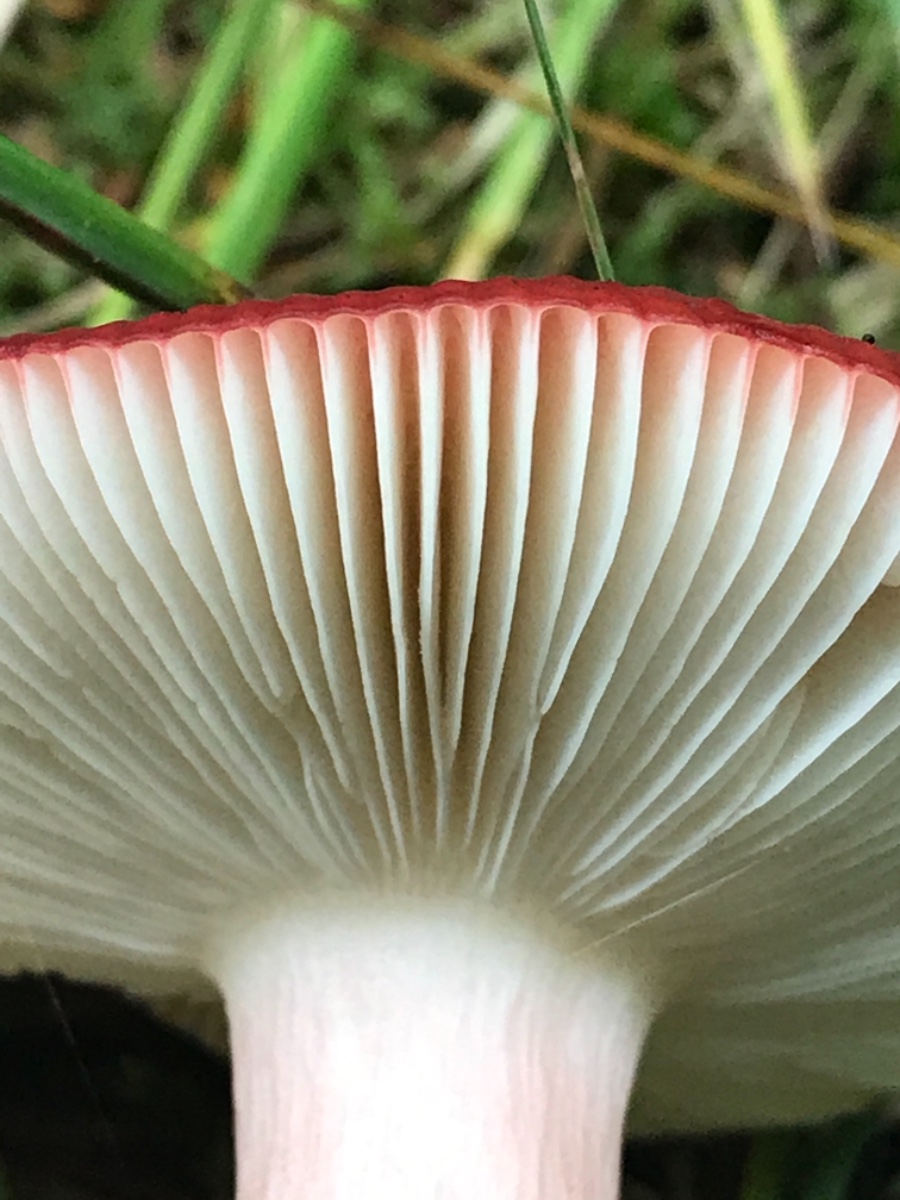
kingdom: Fungi
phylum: Basidiomycota
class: Agaricomycetes
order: Russulales
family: Russulaceae
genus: Russula
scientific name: Russula paludosa
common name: prægtig skørhat
